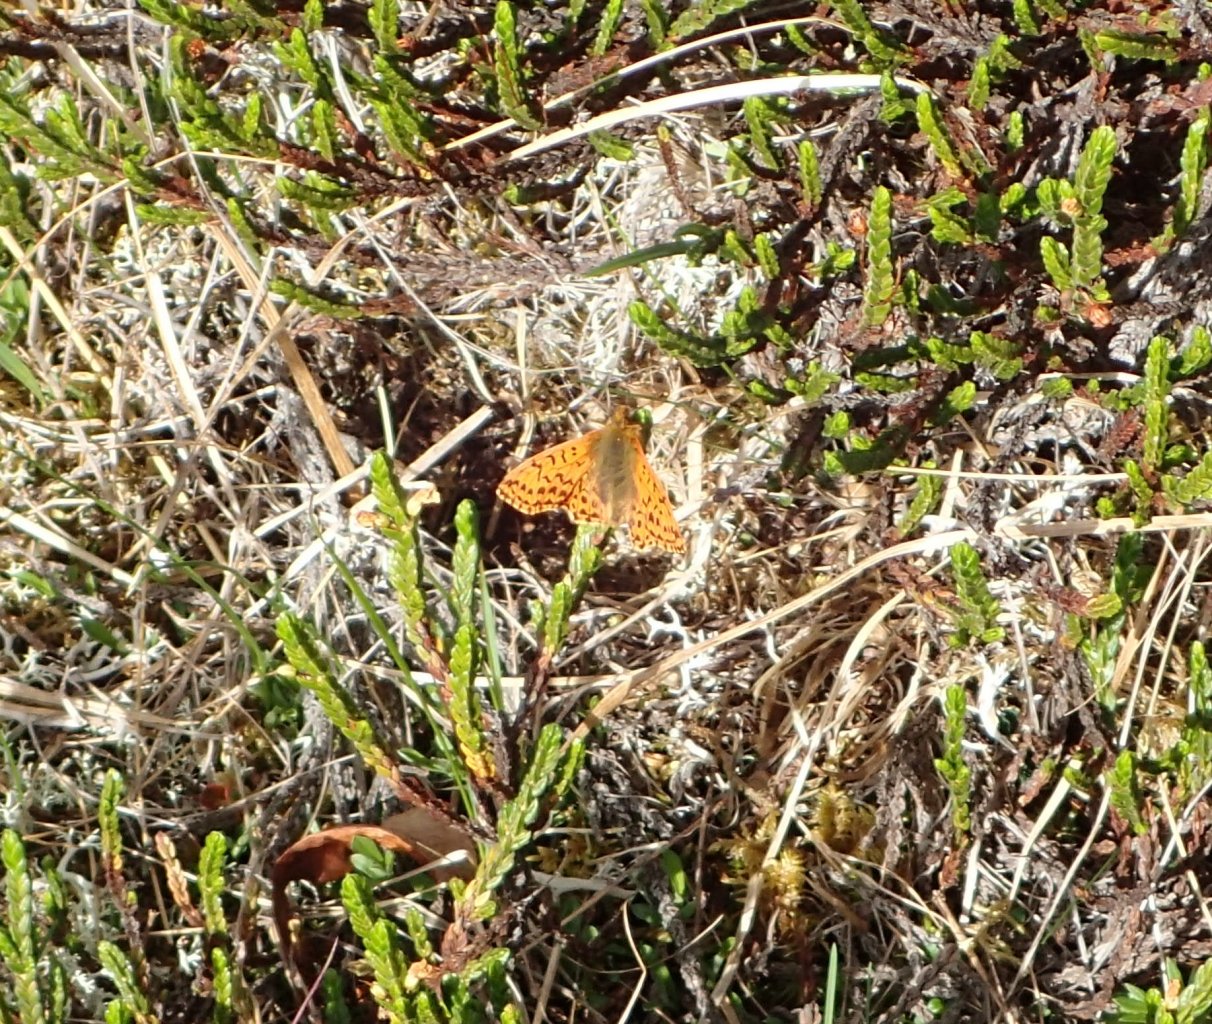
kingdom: Animalia
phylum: Arthropoda
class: Insecta
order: Lepidoptera
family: Nymphalidae
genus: Boloria
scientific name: Boloria alaskensis
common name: Alaskan Fritillary
